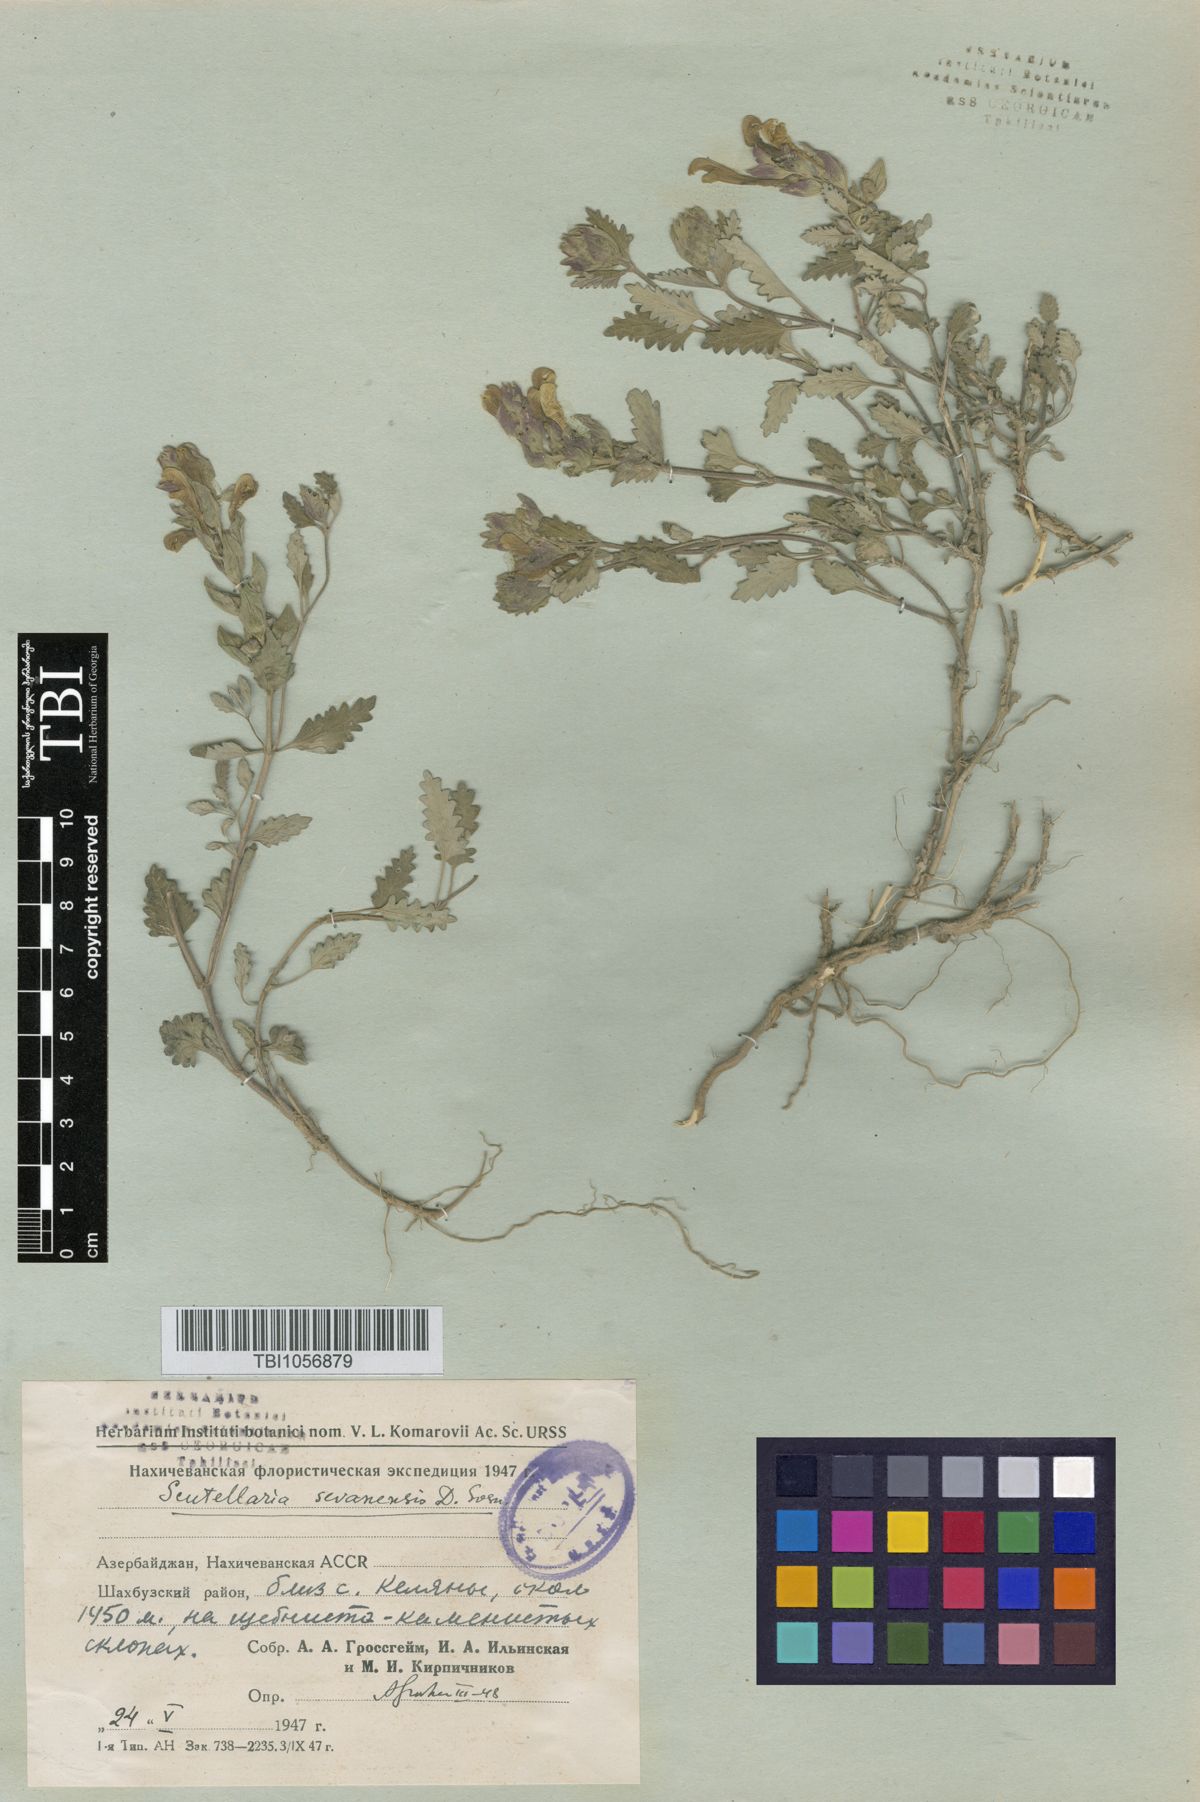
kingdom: Plantae
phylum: Tracheophyta
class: Magnoliopsida
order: Lamiales
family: Lamiaceae
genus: Scutellaria
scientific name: Scutellaria sevanensis
